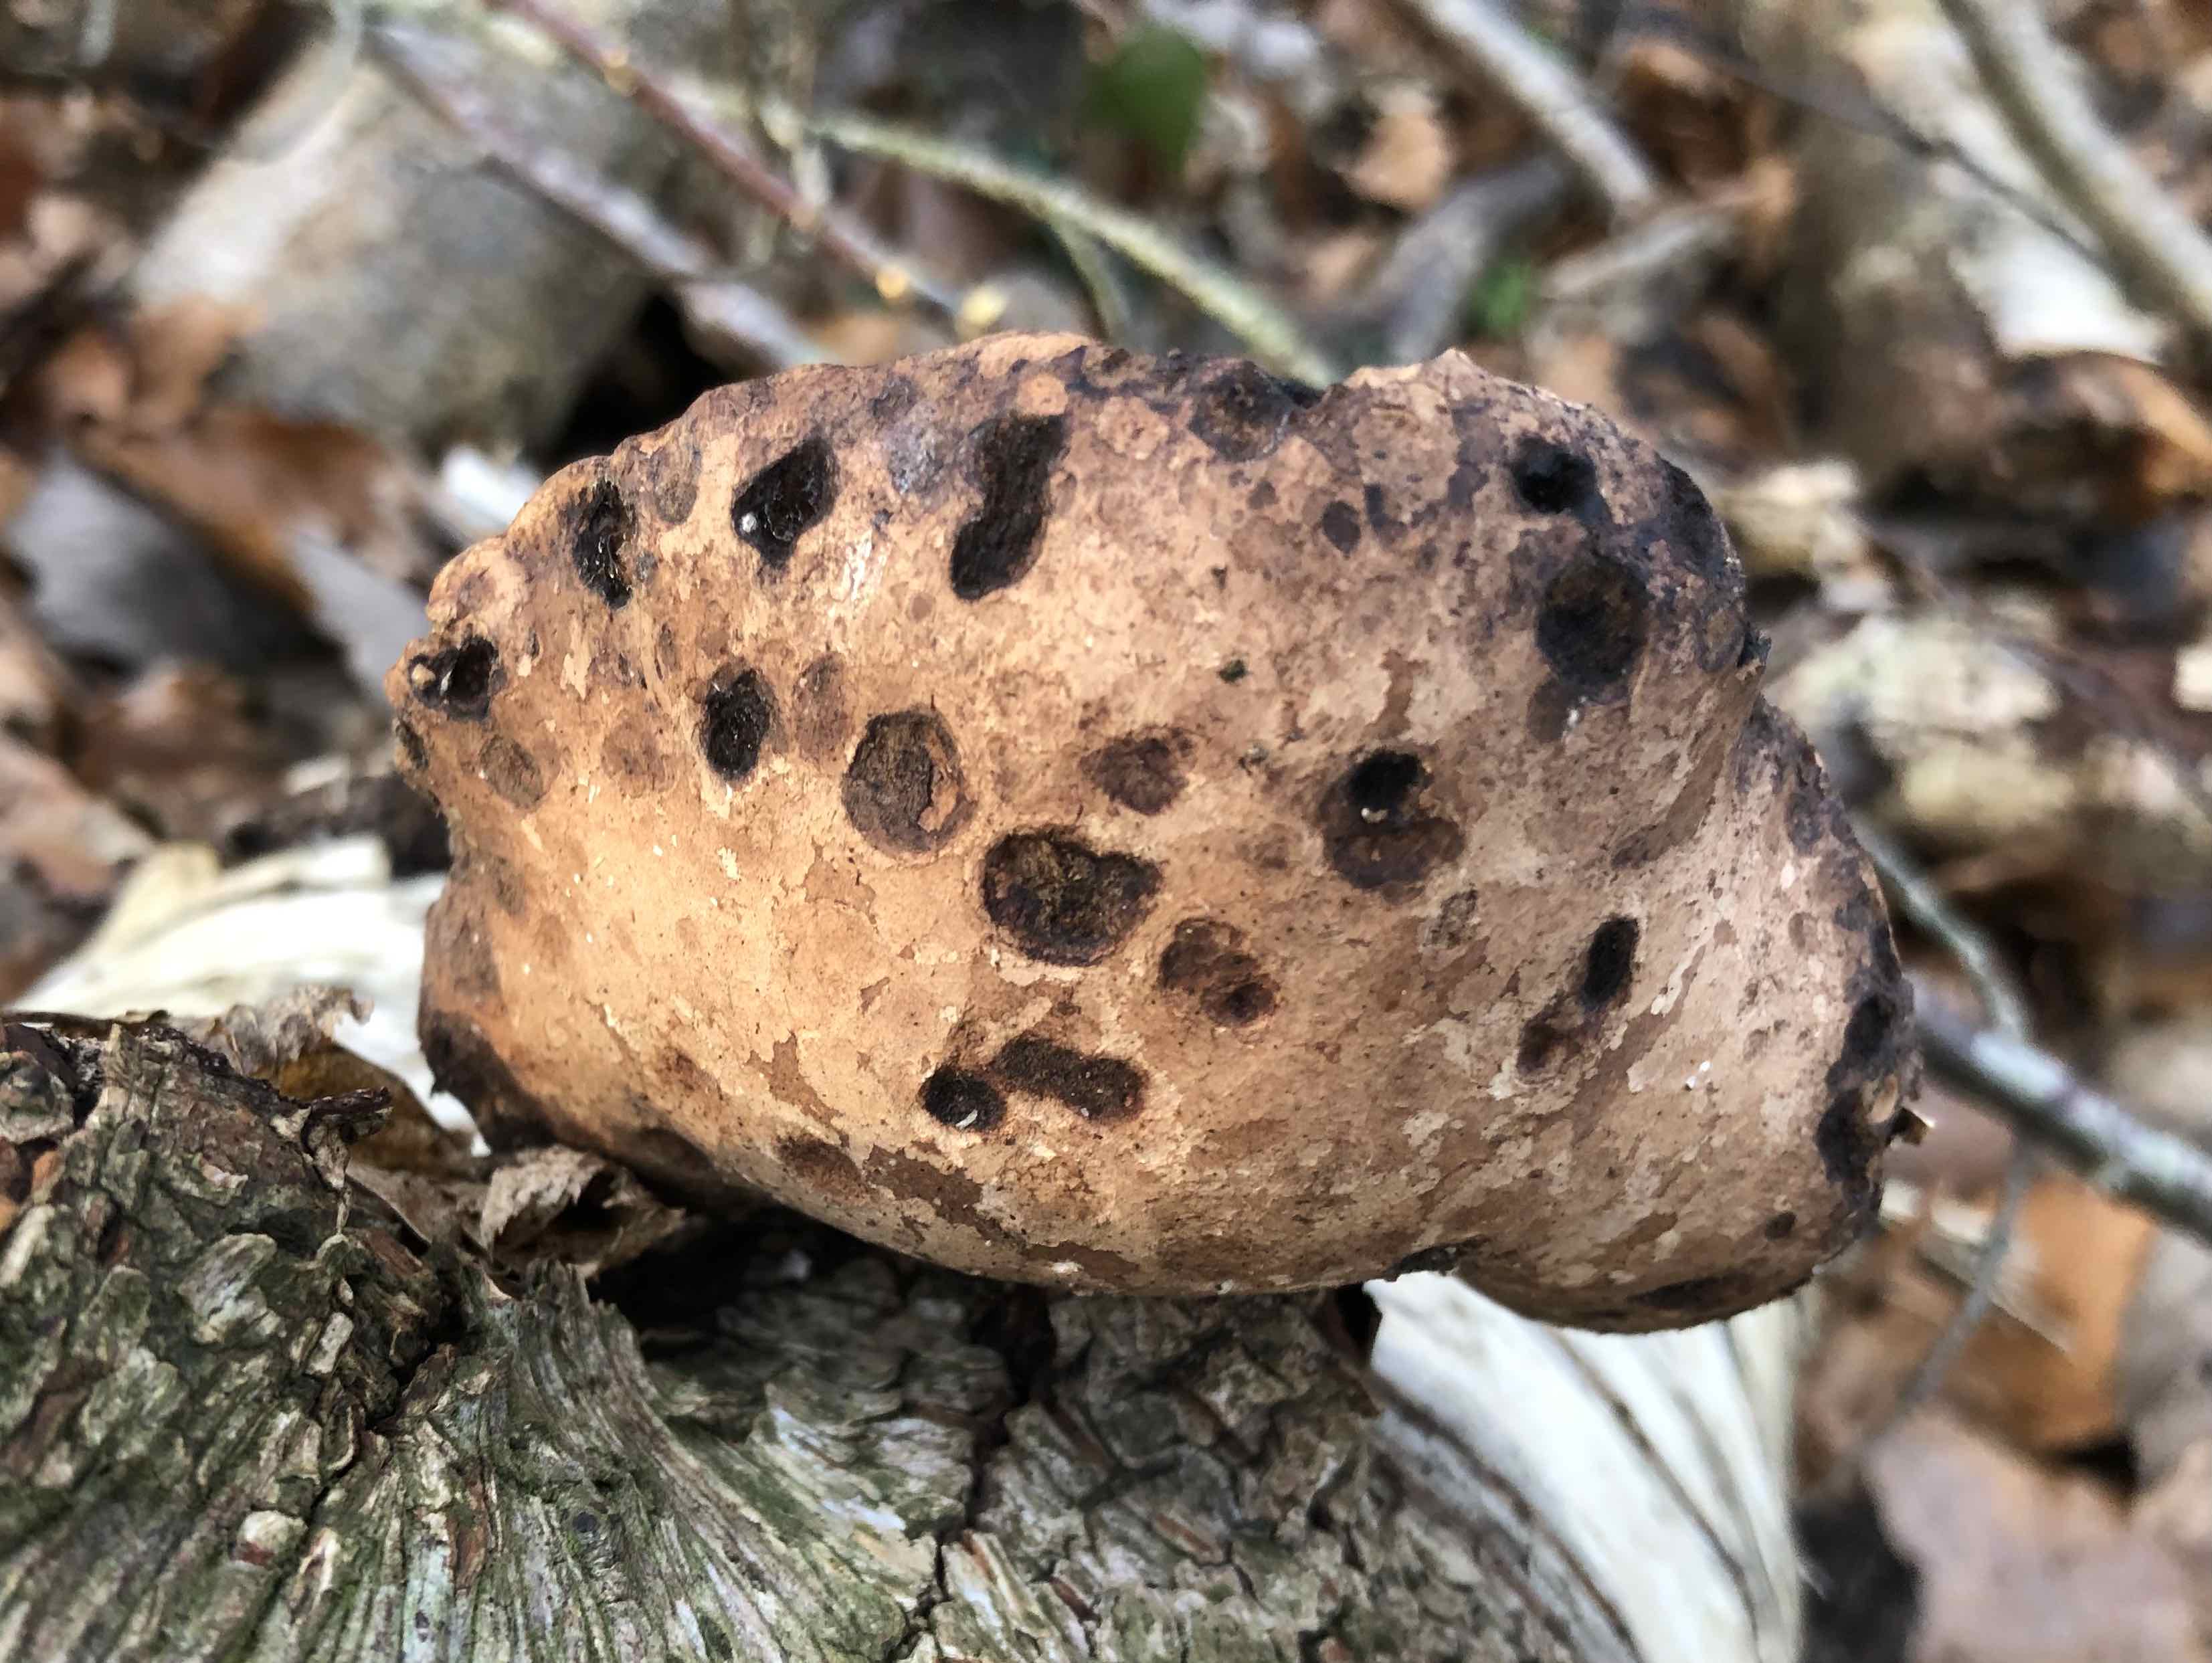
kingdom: Fungi
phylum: Basidiomycota
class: Agaricomycetes
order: Polyporales
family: Fomitopsidaceae
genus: Fomitopsis
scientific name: Fomitopsis betulina
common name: birkeporesvamp
